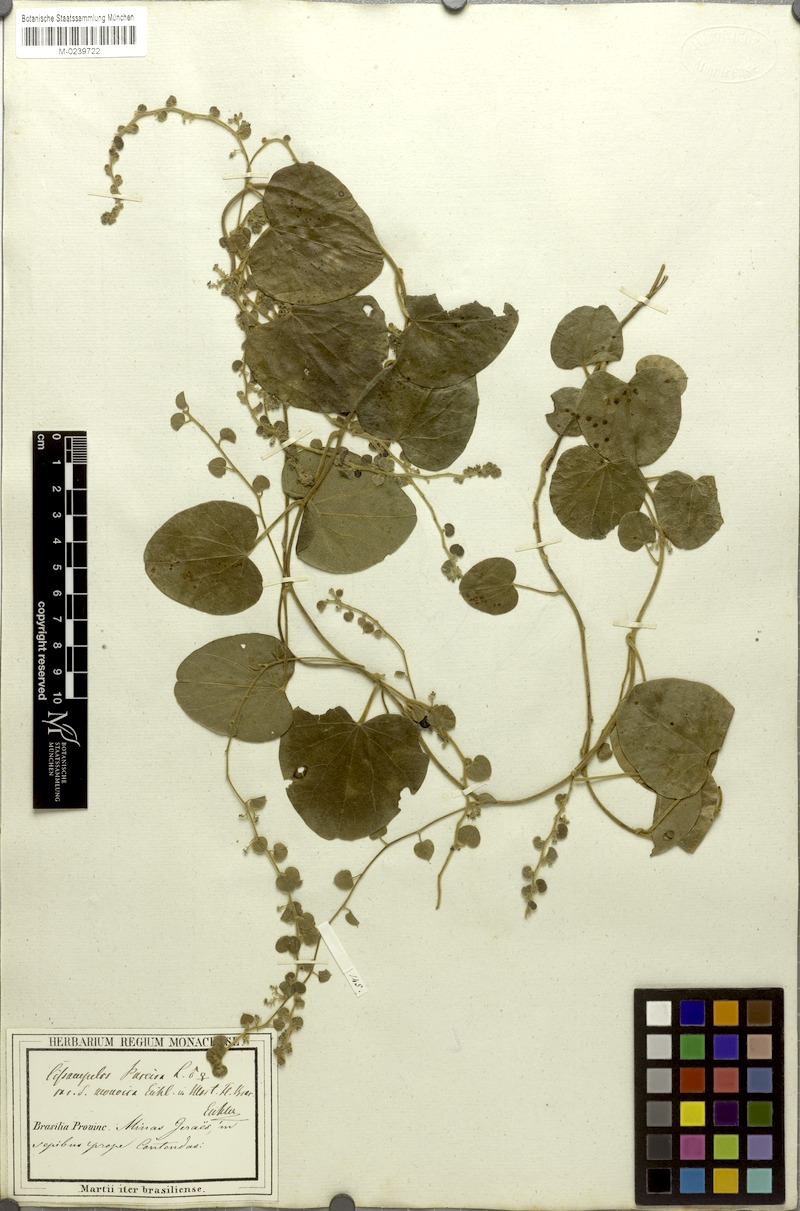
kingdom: Plantae
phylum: Tracheophyta
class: Magnoliopsida
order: Ranunculales
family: Menispermaceae
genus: Cissampelos
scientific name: Cissampelos pareira
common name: Velvetleaf
